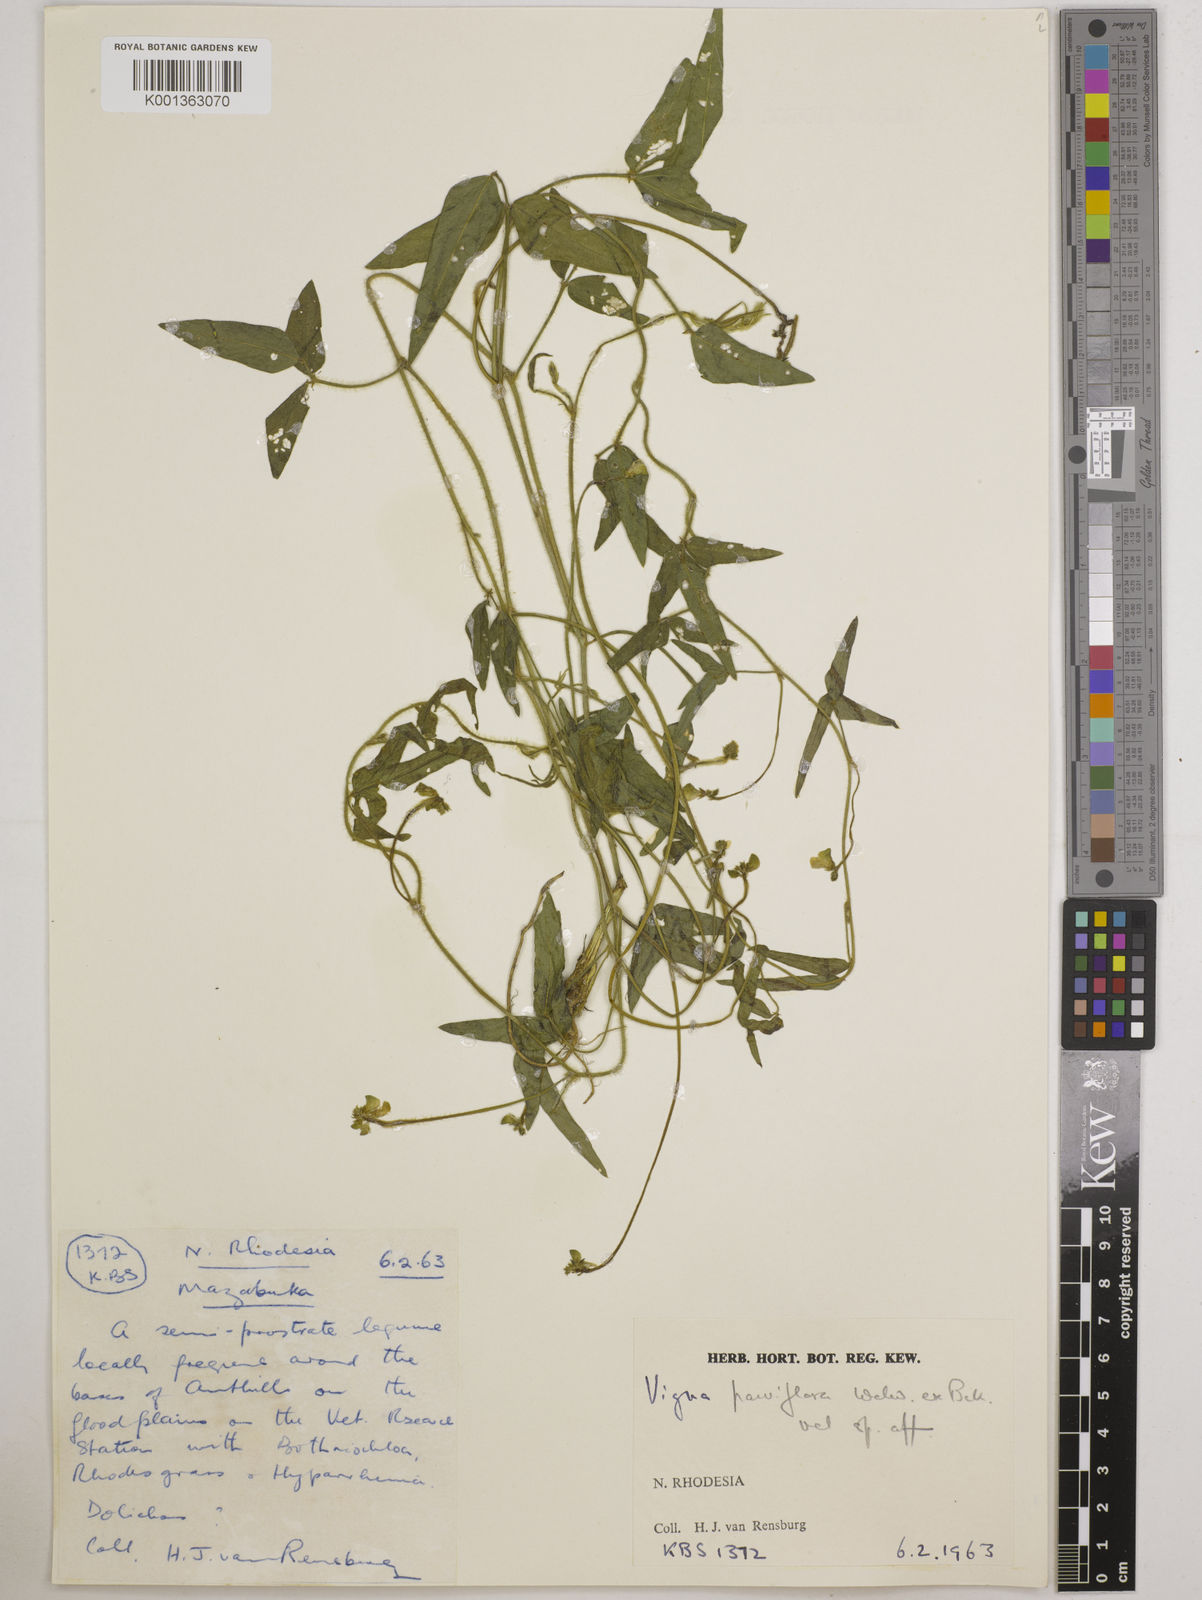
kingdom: Plantae
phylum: Tracheophyta
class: Magnoliopsida
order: Fabales
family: Fabaceae
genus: Vigna
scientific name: Vigna
